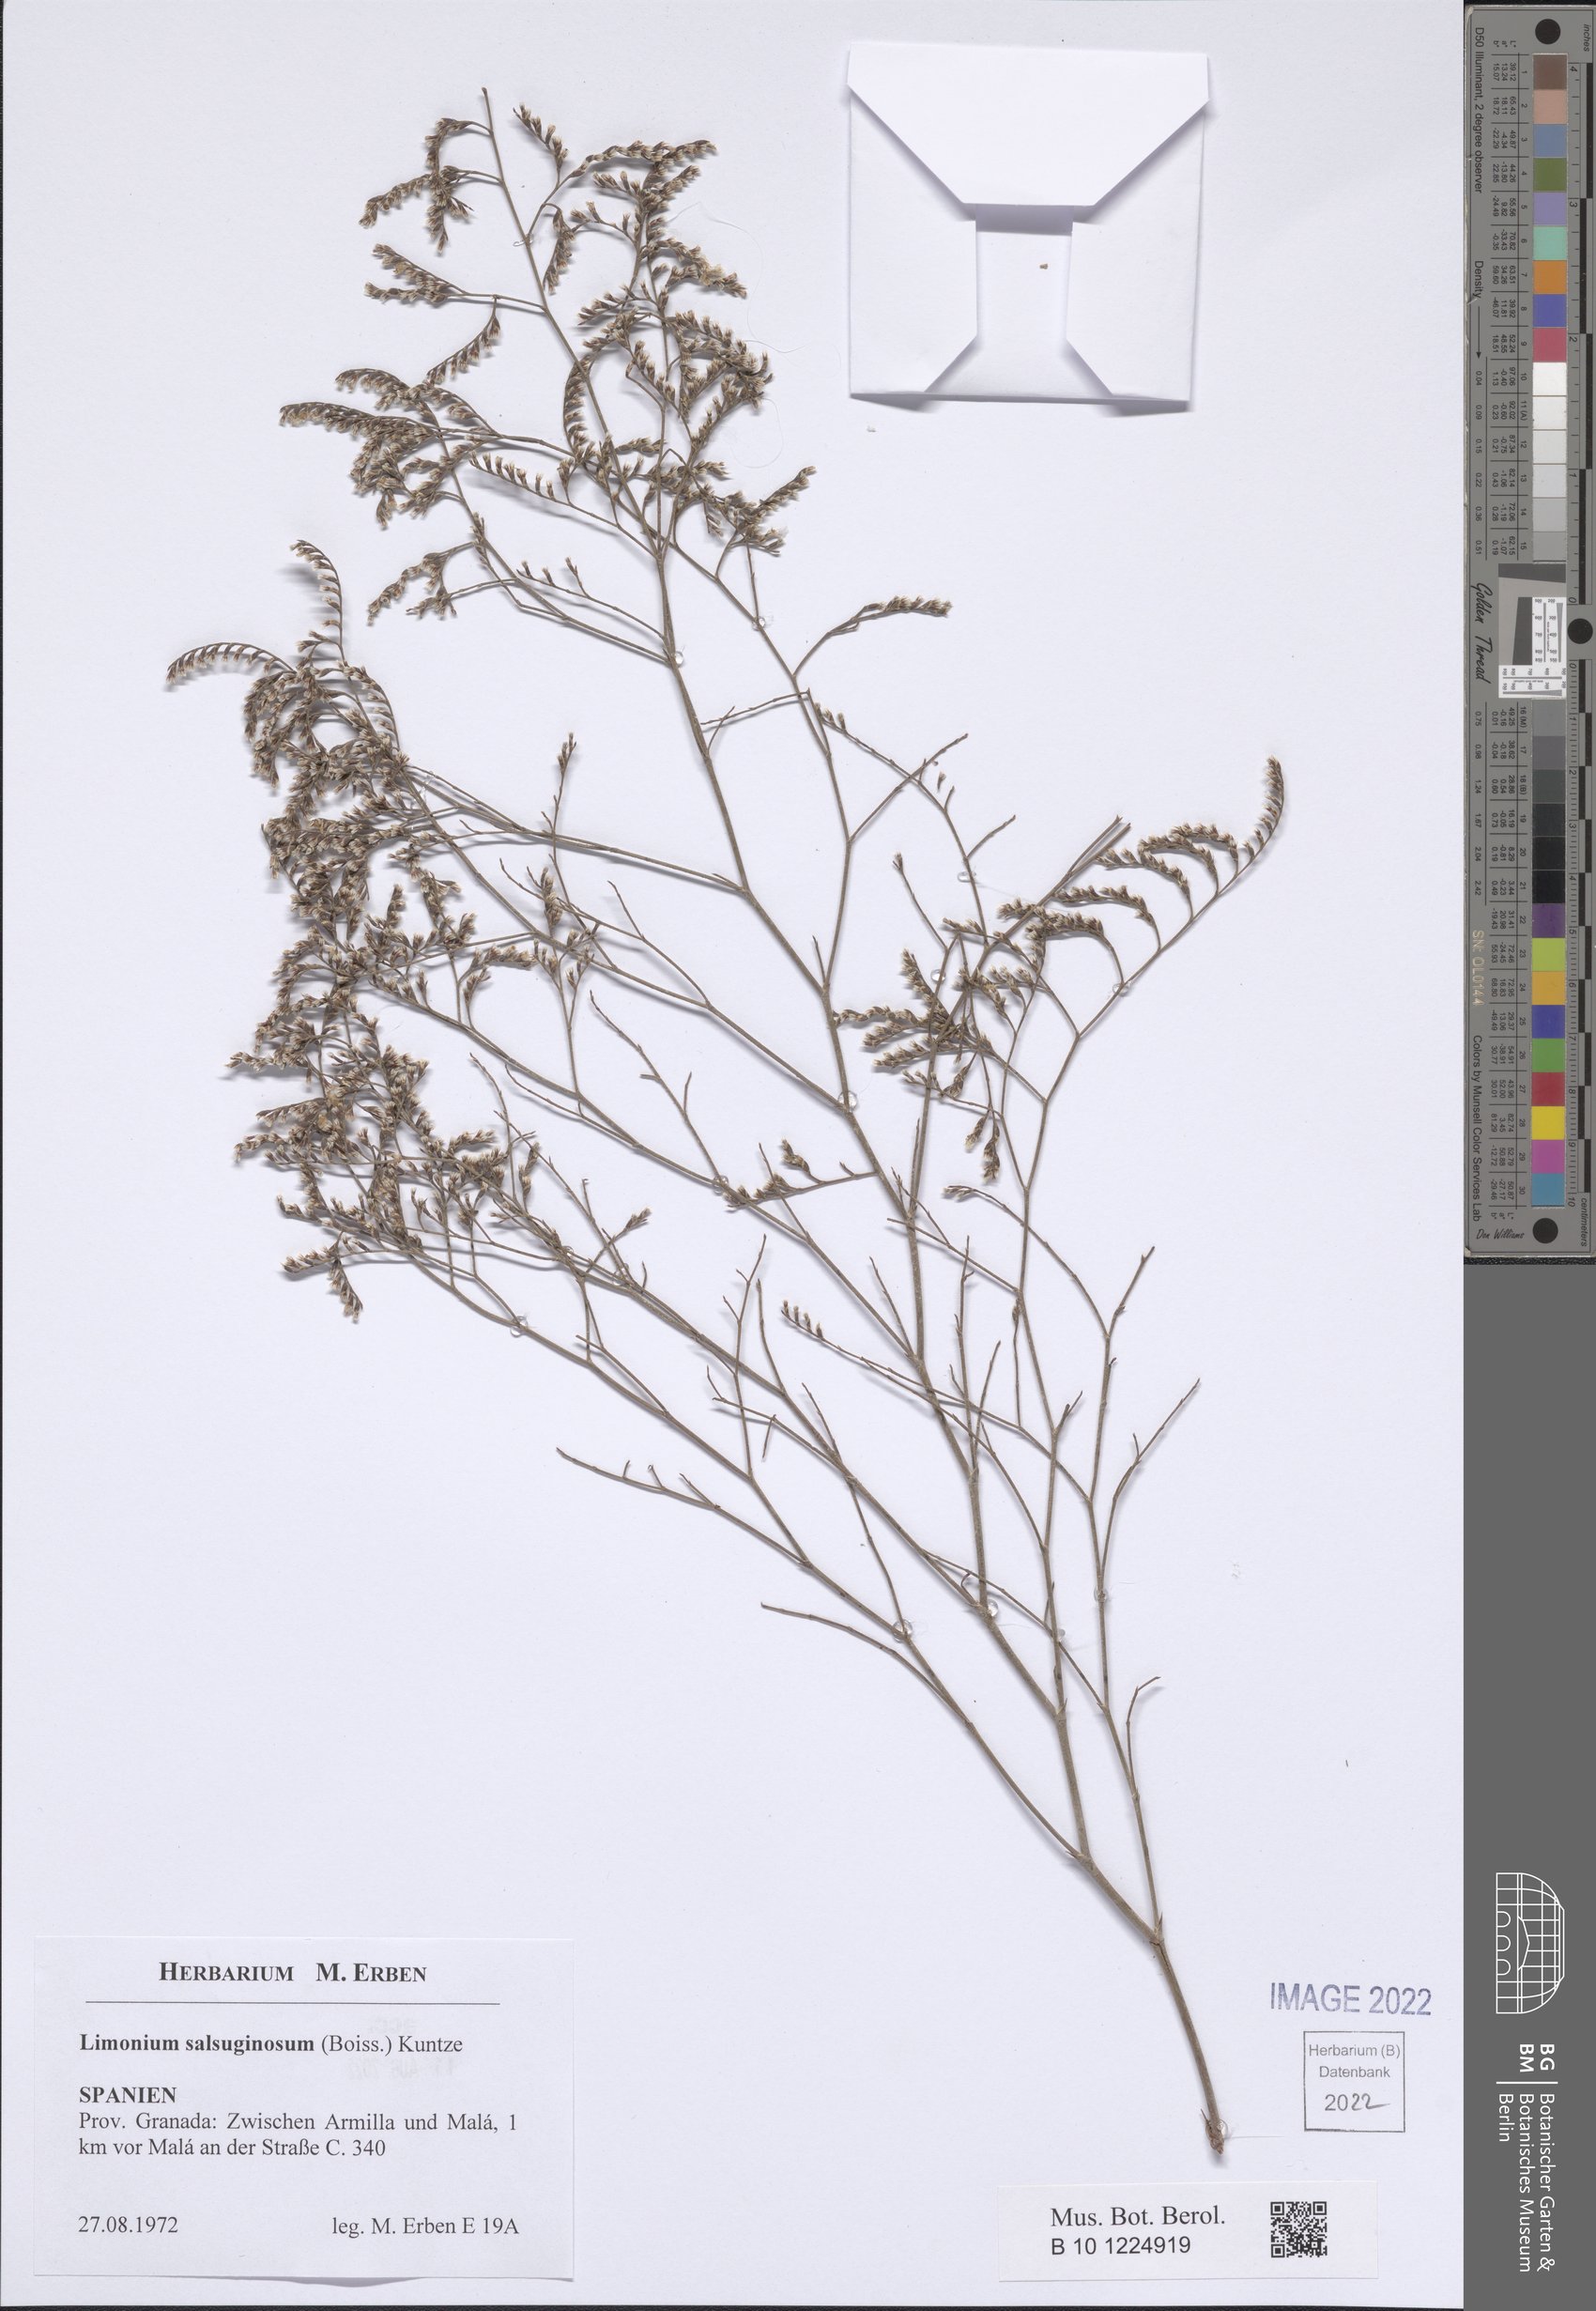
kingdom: Plantae
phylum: Tracheophyta
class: Magnoliopsida
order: Caryophyllales
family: Plumbaginaceae
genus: Limonium
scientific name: Limonium supinum
